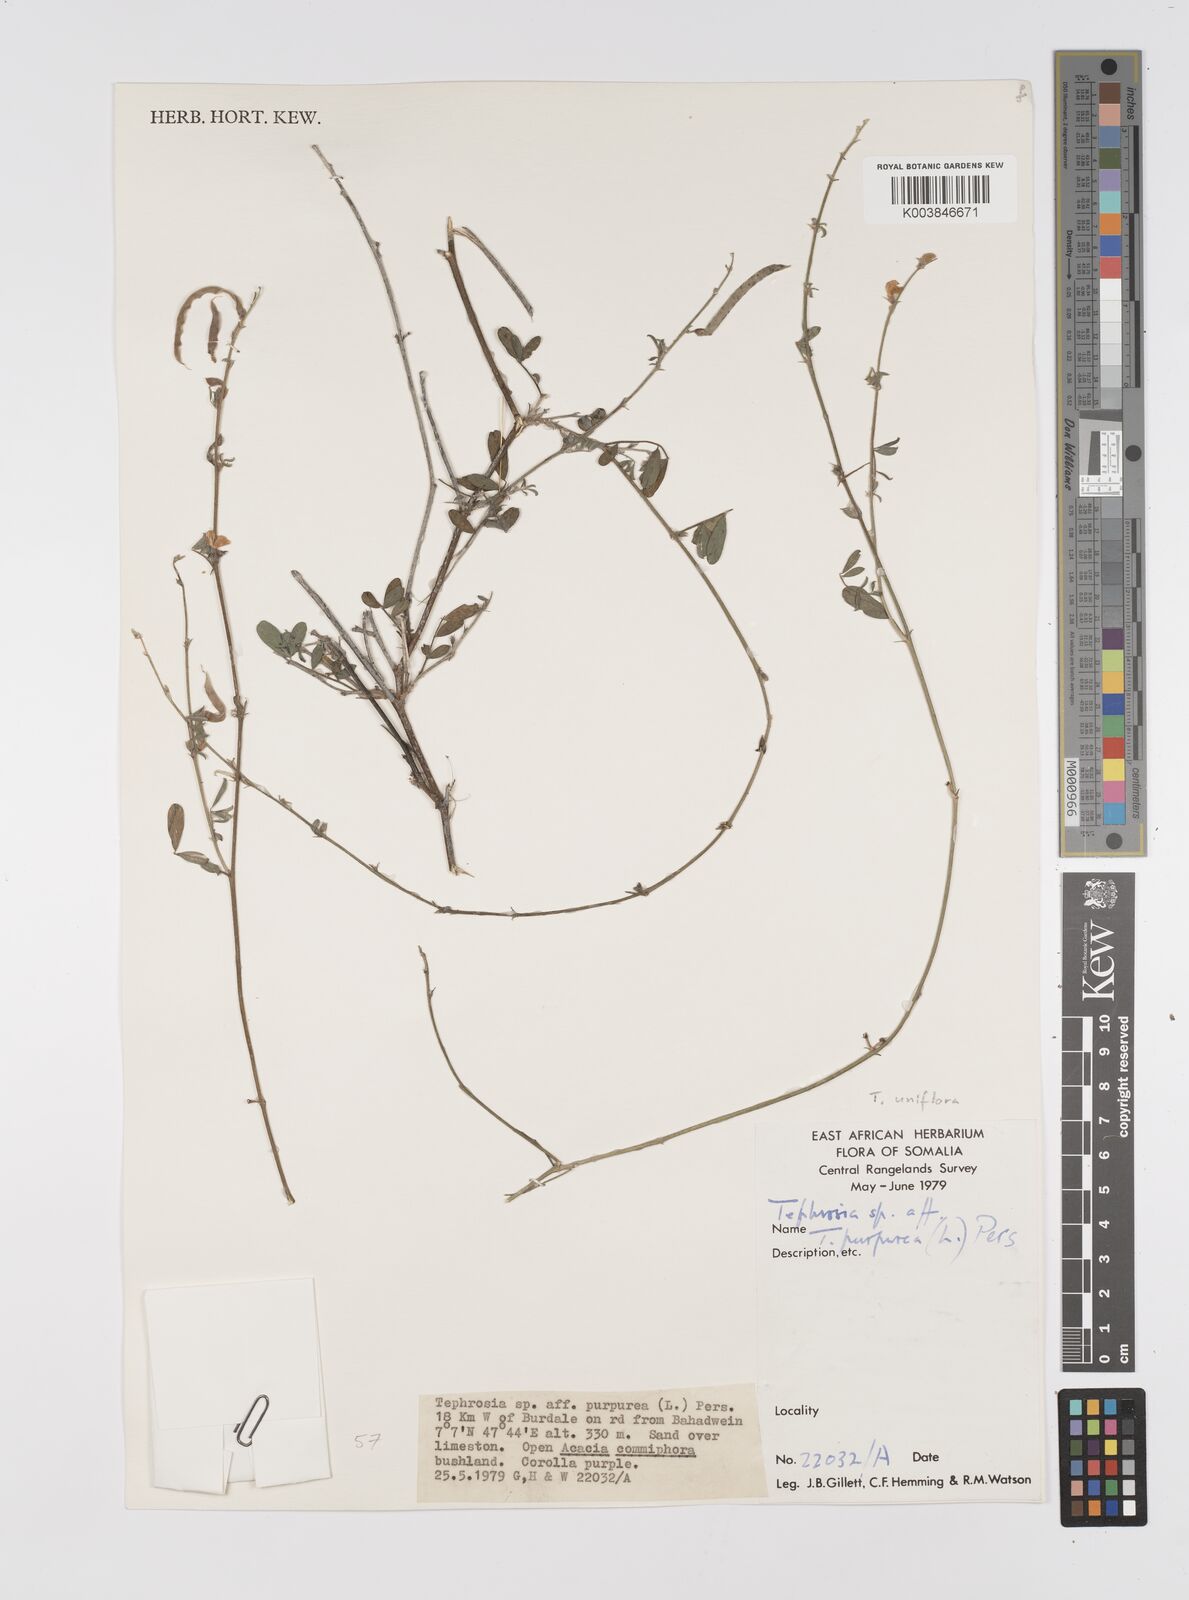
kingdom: Plantae
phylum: Tracheophyta
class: Magnoliopsida
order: Fabales
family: Fabaceae
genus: Tephrosia
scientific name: Tephrosia uniflora
